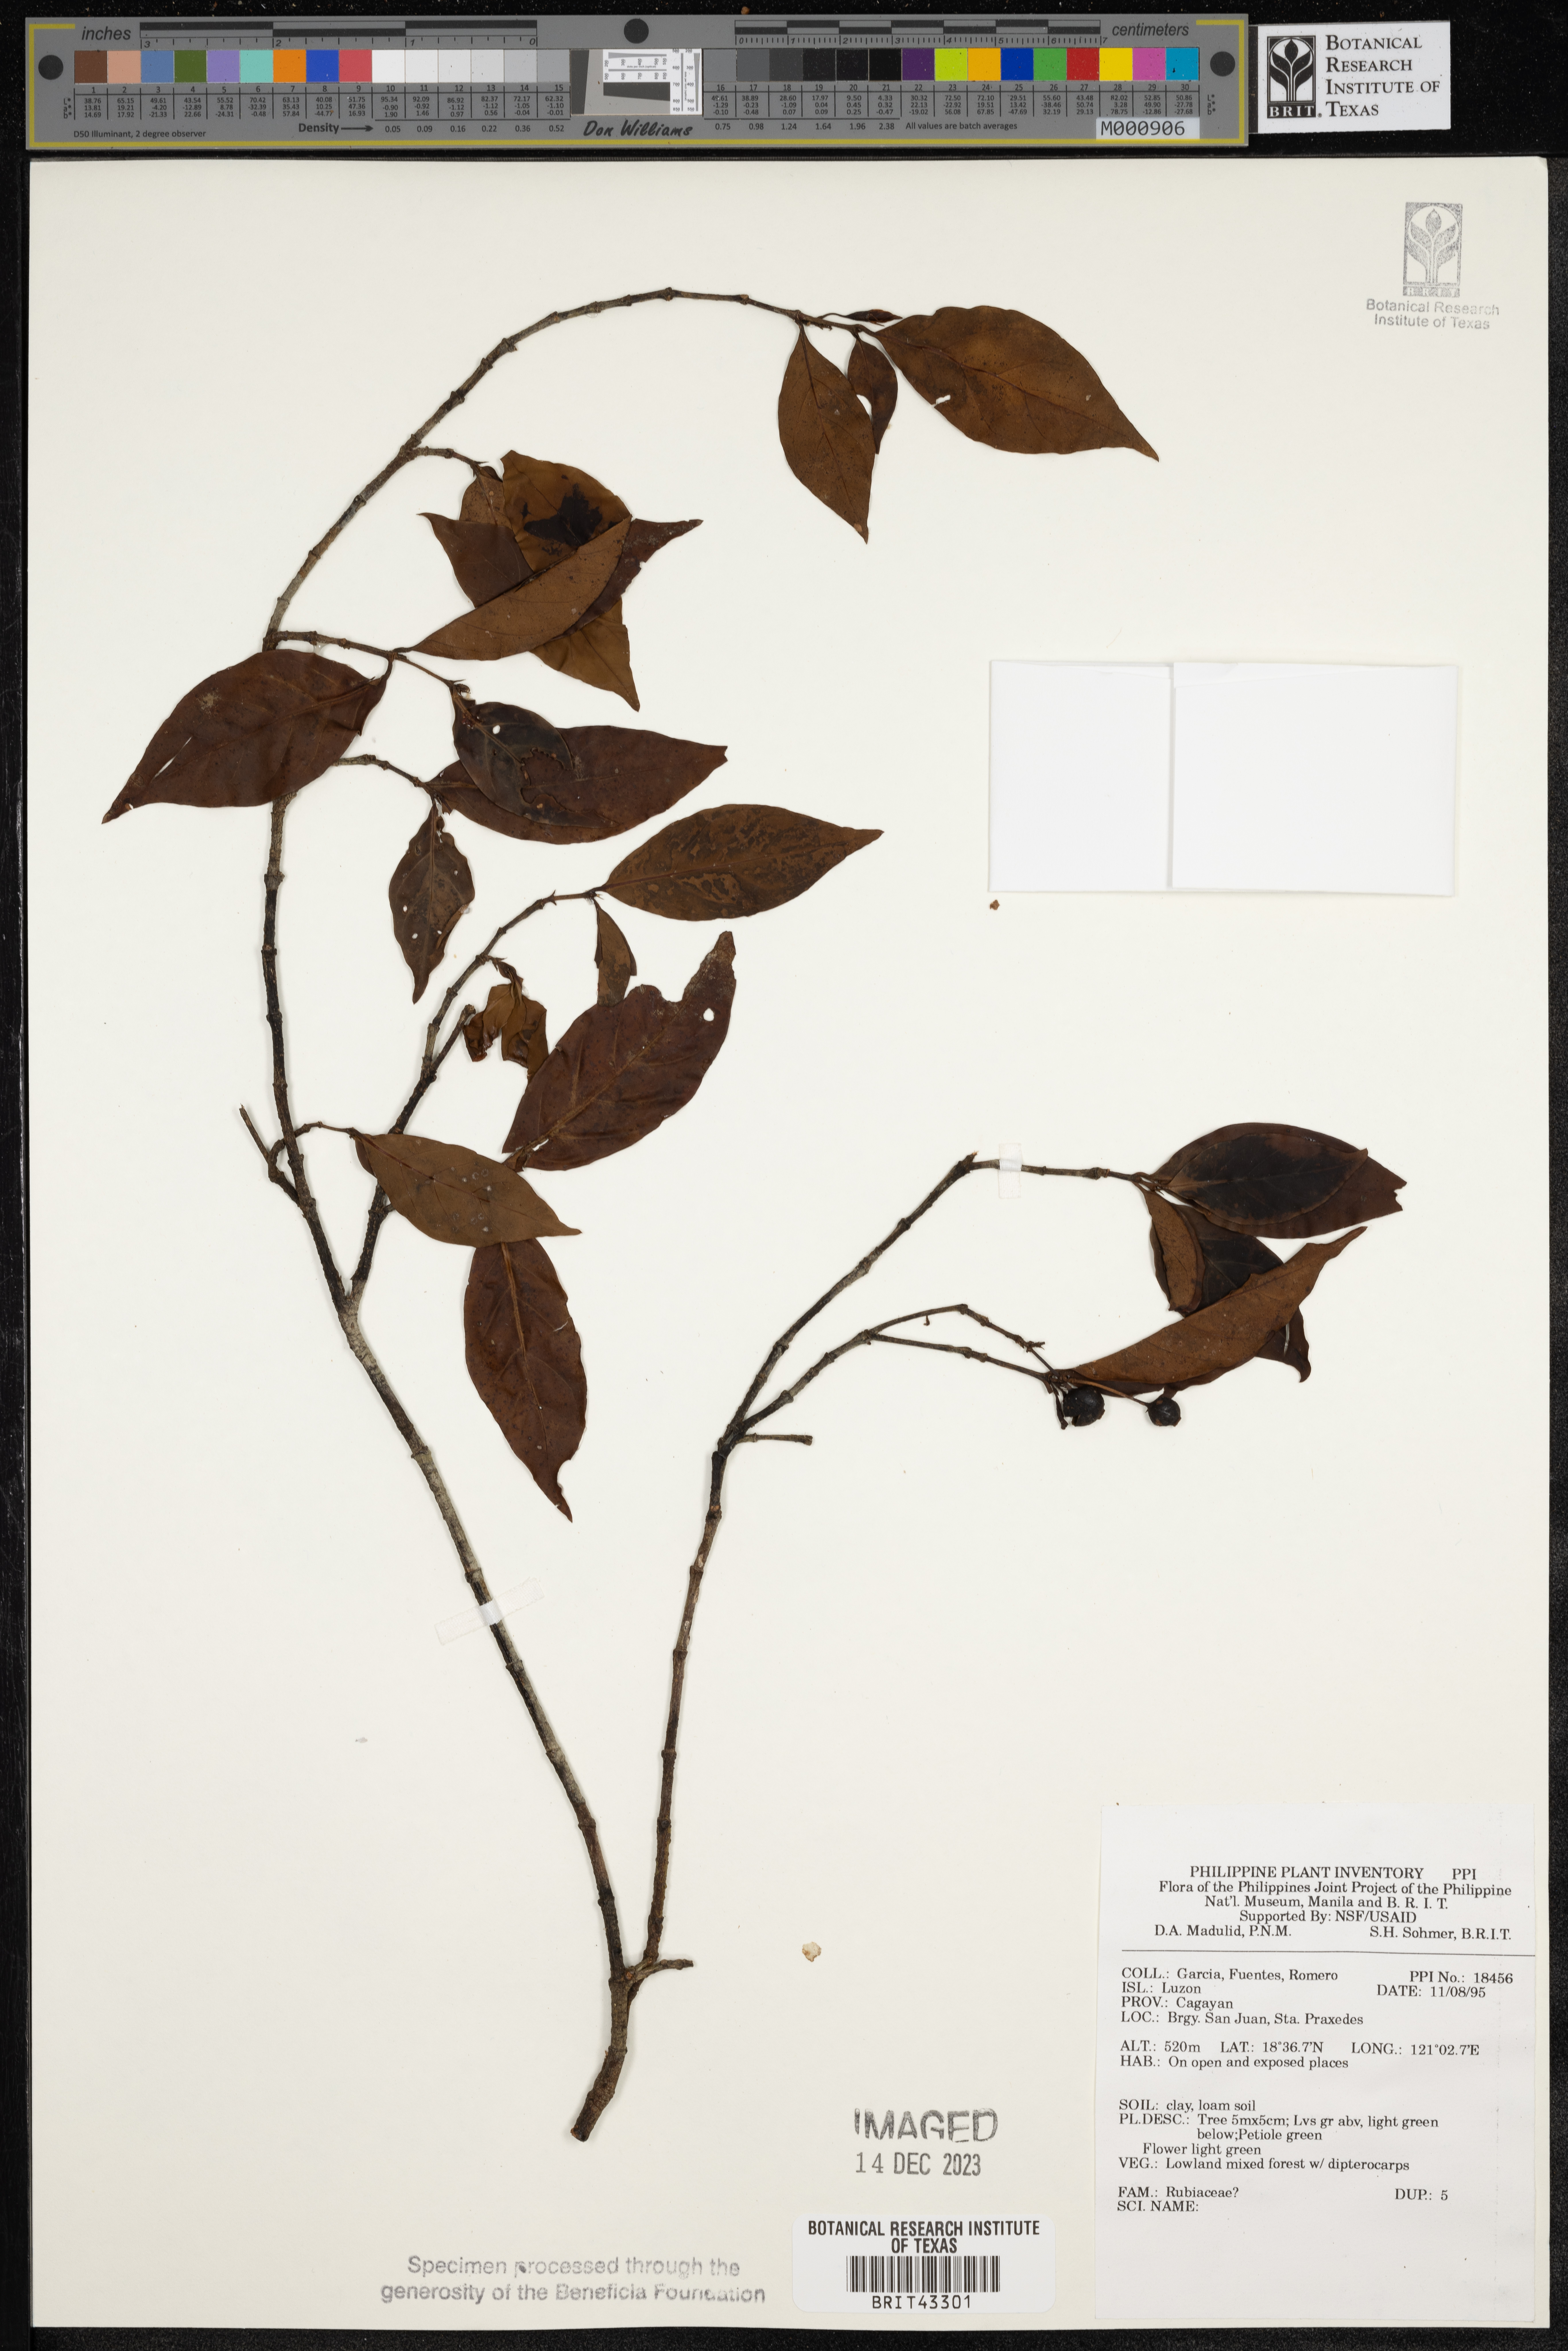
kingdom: Plantae
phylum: Tracheophyta
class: Magnoliopsida
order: Gentianales
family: Rubiaceae
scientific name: Rubiaceae
